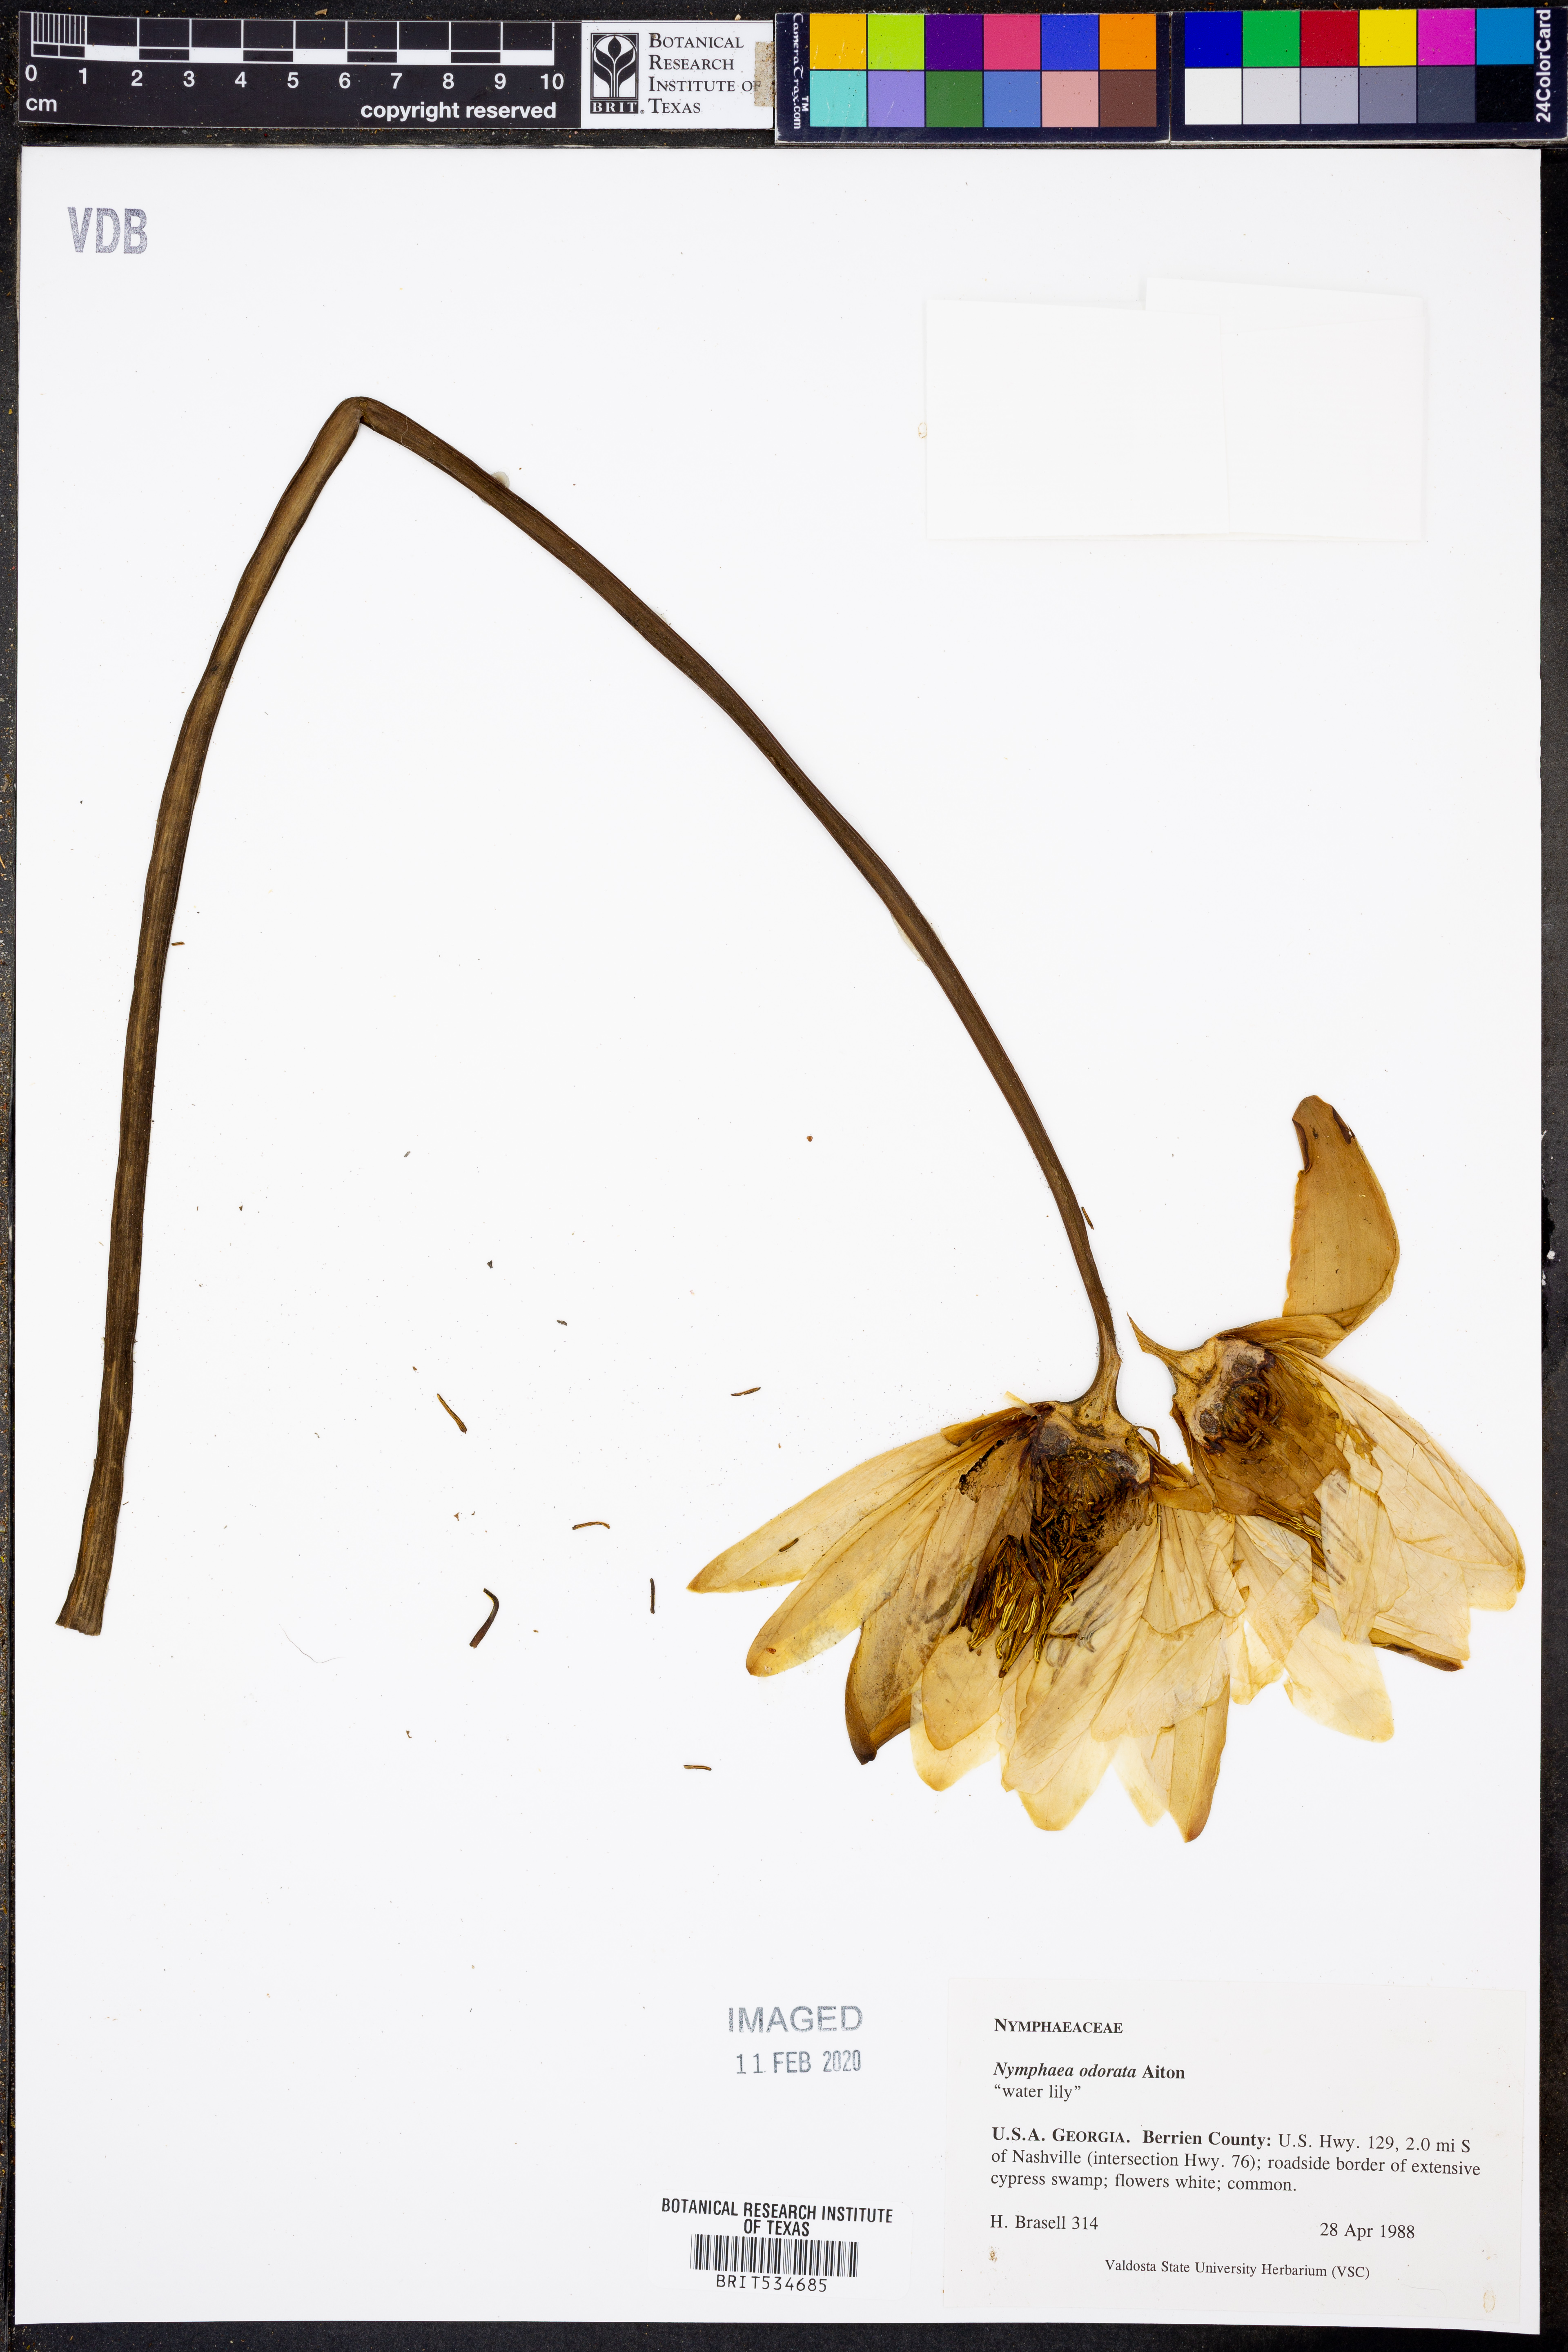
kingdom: Plantae
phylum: Tracheophyta
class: Magnoliopsida
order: Nymphaeales
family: Nymphaeaceae
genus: Nymphaea
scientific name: Nymphaea odorata
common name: Fragrant water-lily
